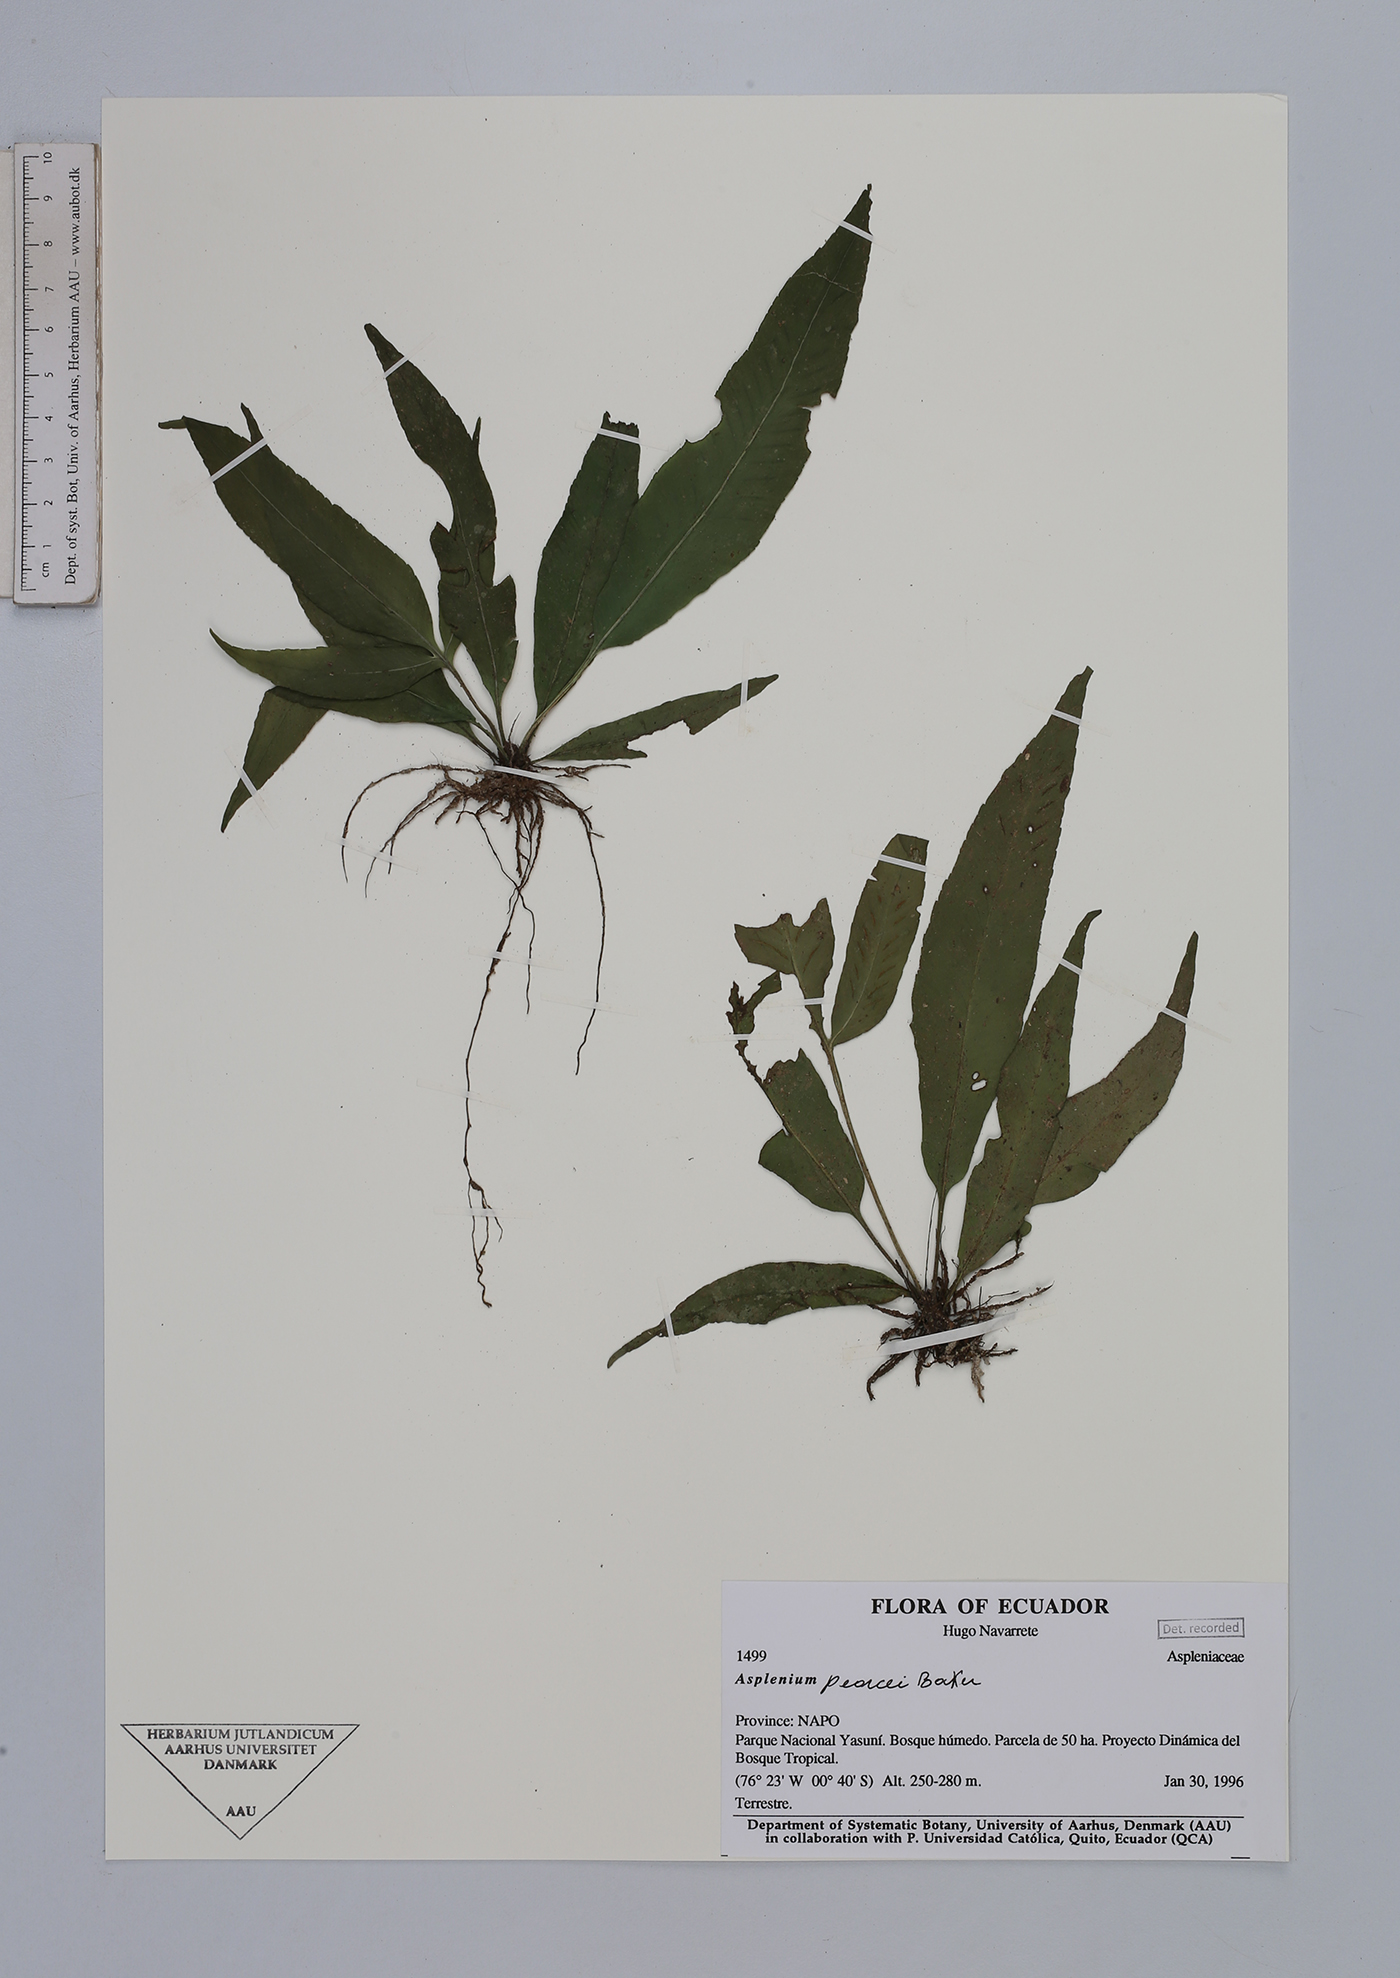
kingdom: Plantae
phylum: Tracheophyta
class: Polypodiopsida
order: Polypodiales
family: Aspleniaceae
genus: Asplenium
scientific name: Asplenium
